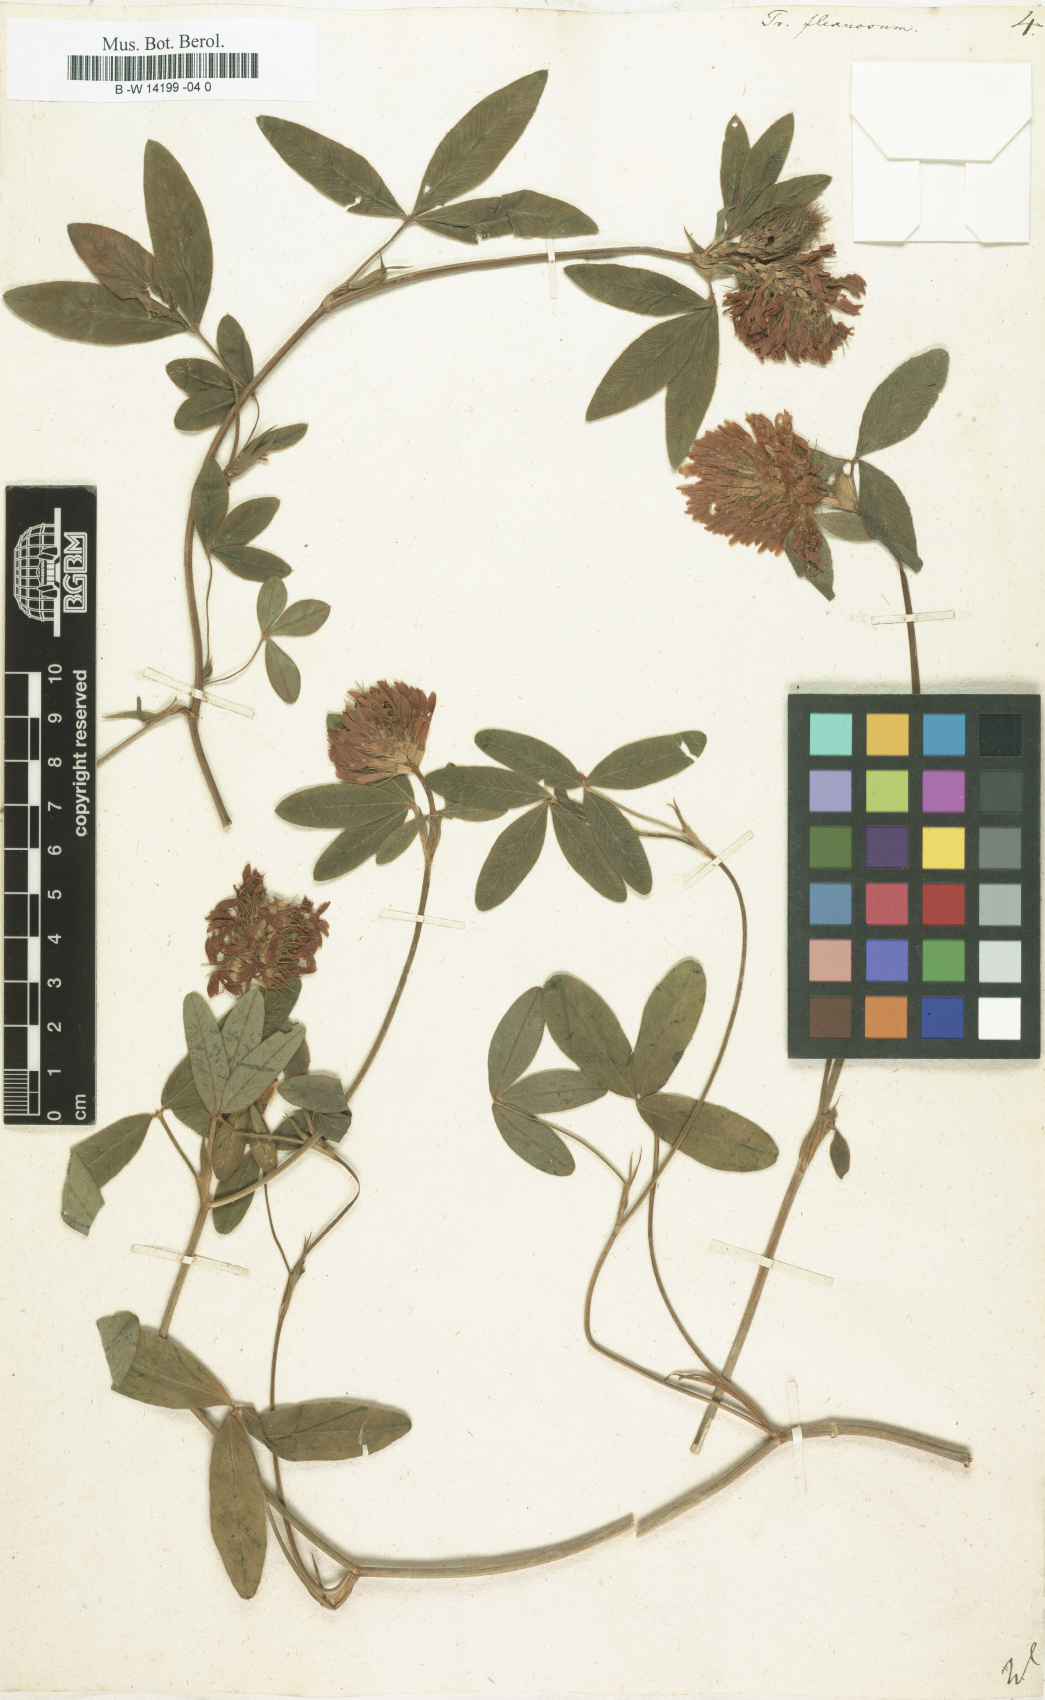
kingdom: Plantae
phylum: Tracheophyta
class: Magnoliopsida
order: Fabales
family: Fabaceae
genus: Trifolium
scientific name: Trifolium medium
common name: Zigzag clover
